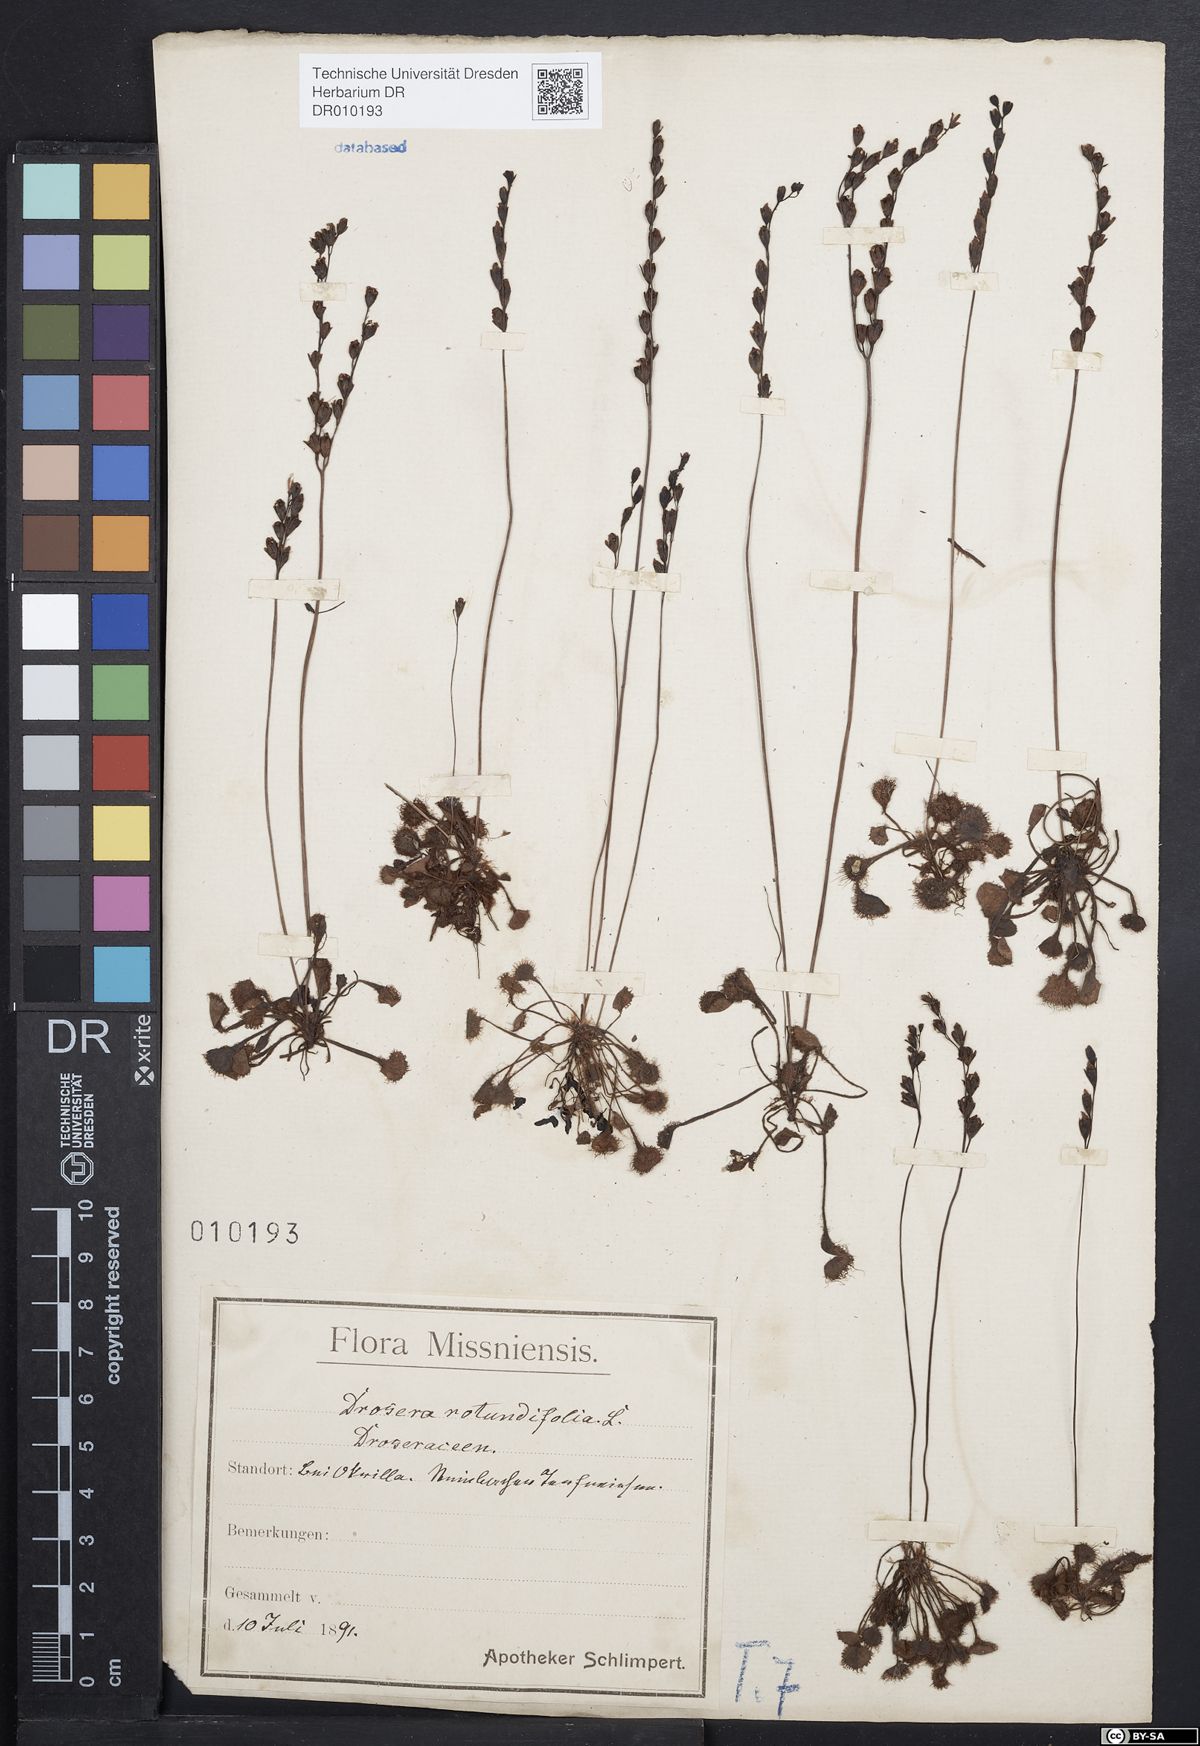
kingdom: Plantae
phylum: Tracheophyta
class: Magnoliopsida
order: Caryophyllales
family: Droseraceae
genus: Drosera
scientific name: Drosera rotundifolia
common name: Round-leaved sundew
